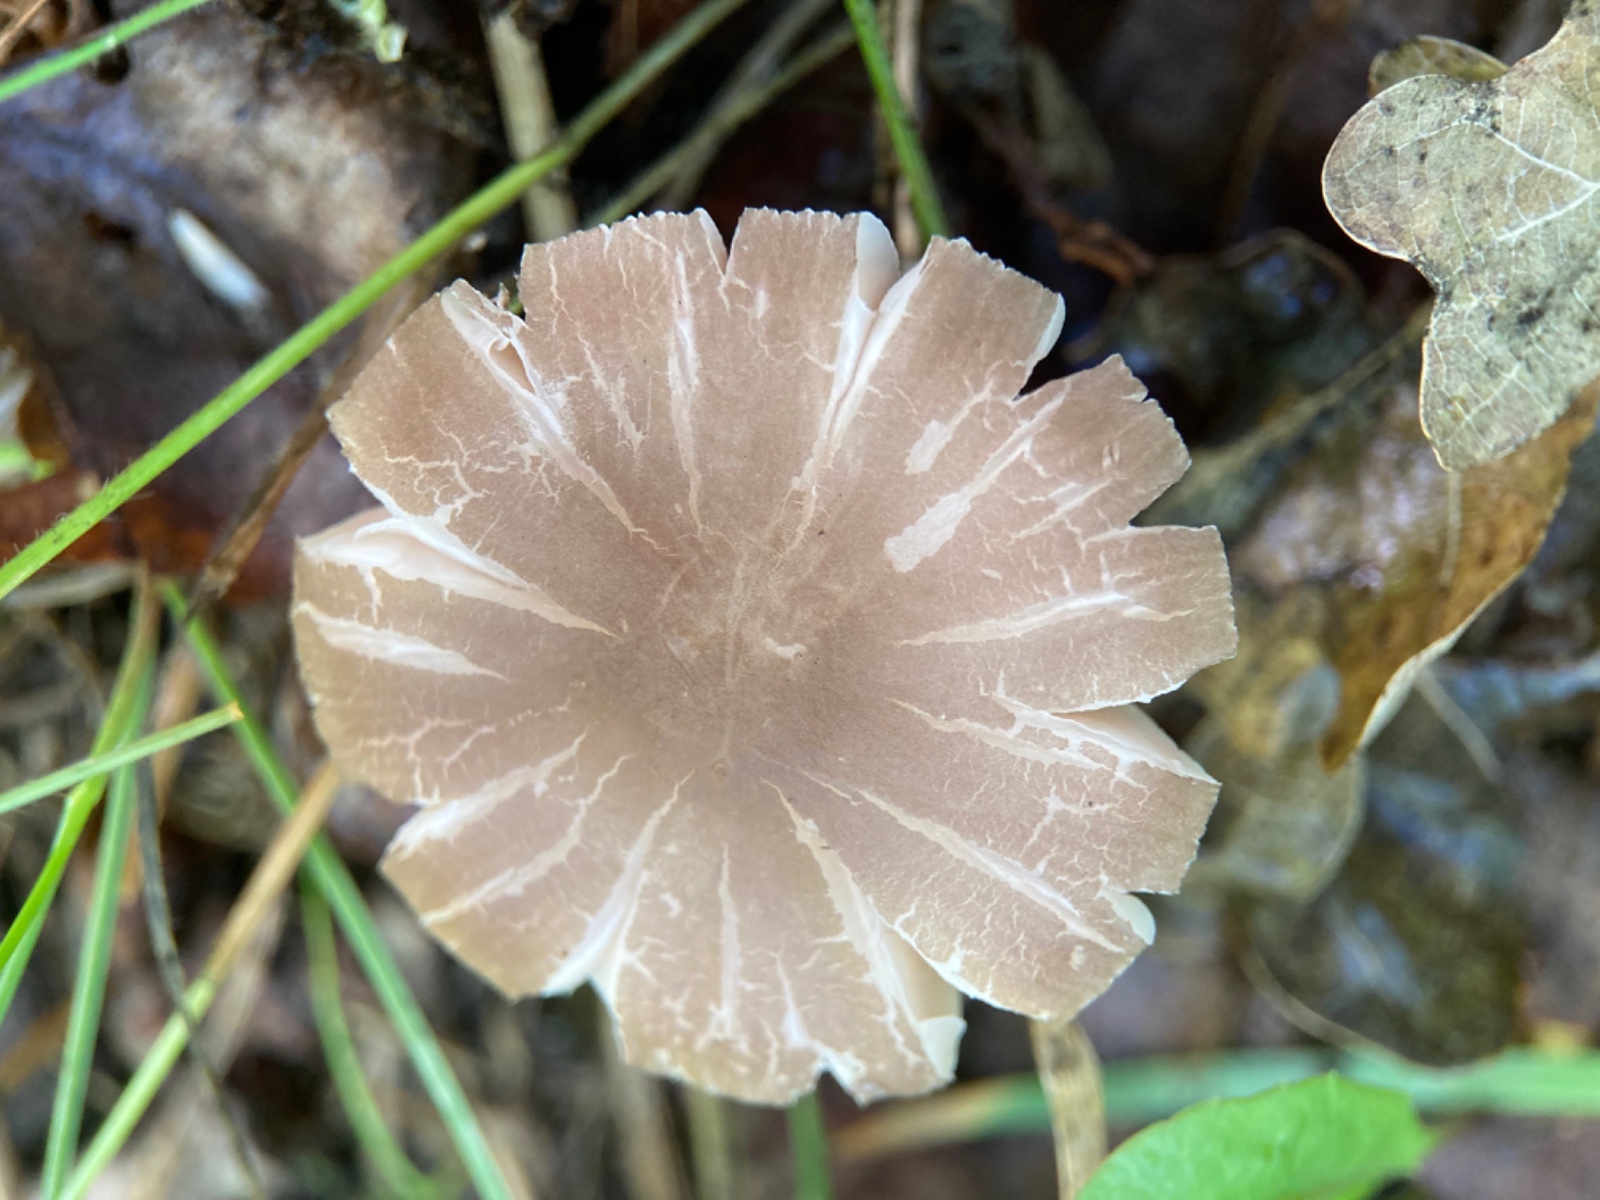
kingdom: Fungi
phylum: Basidiomycota
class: Agaricomycetes
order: Agaricales
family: Pluteaceae
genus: Pluteus
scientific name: Pluteus
